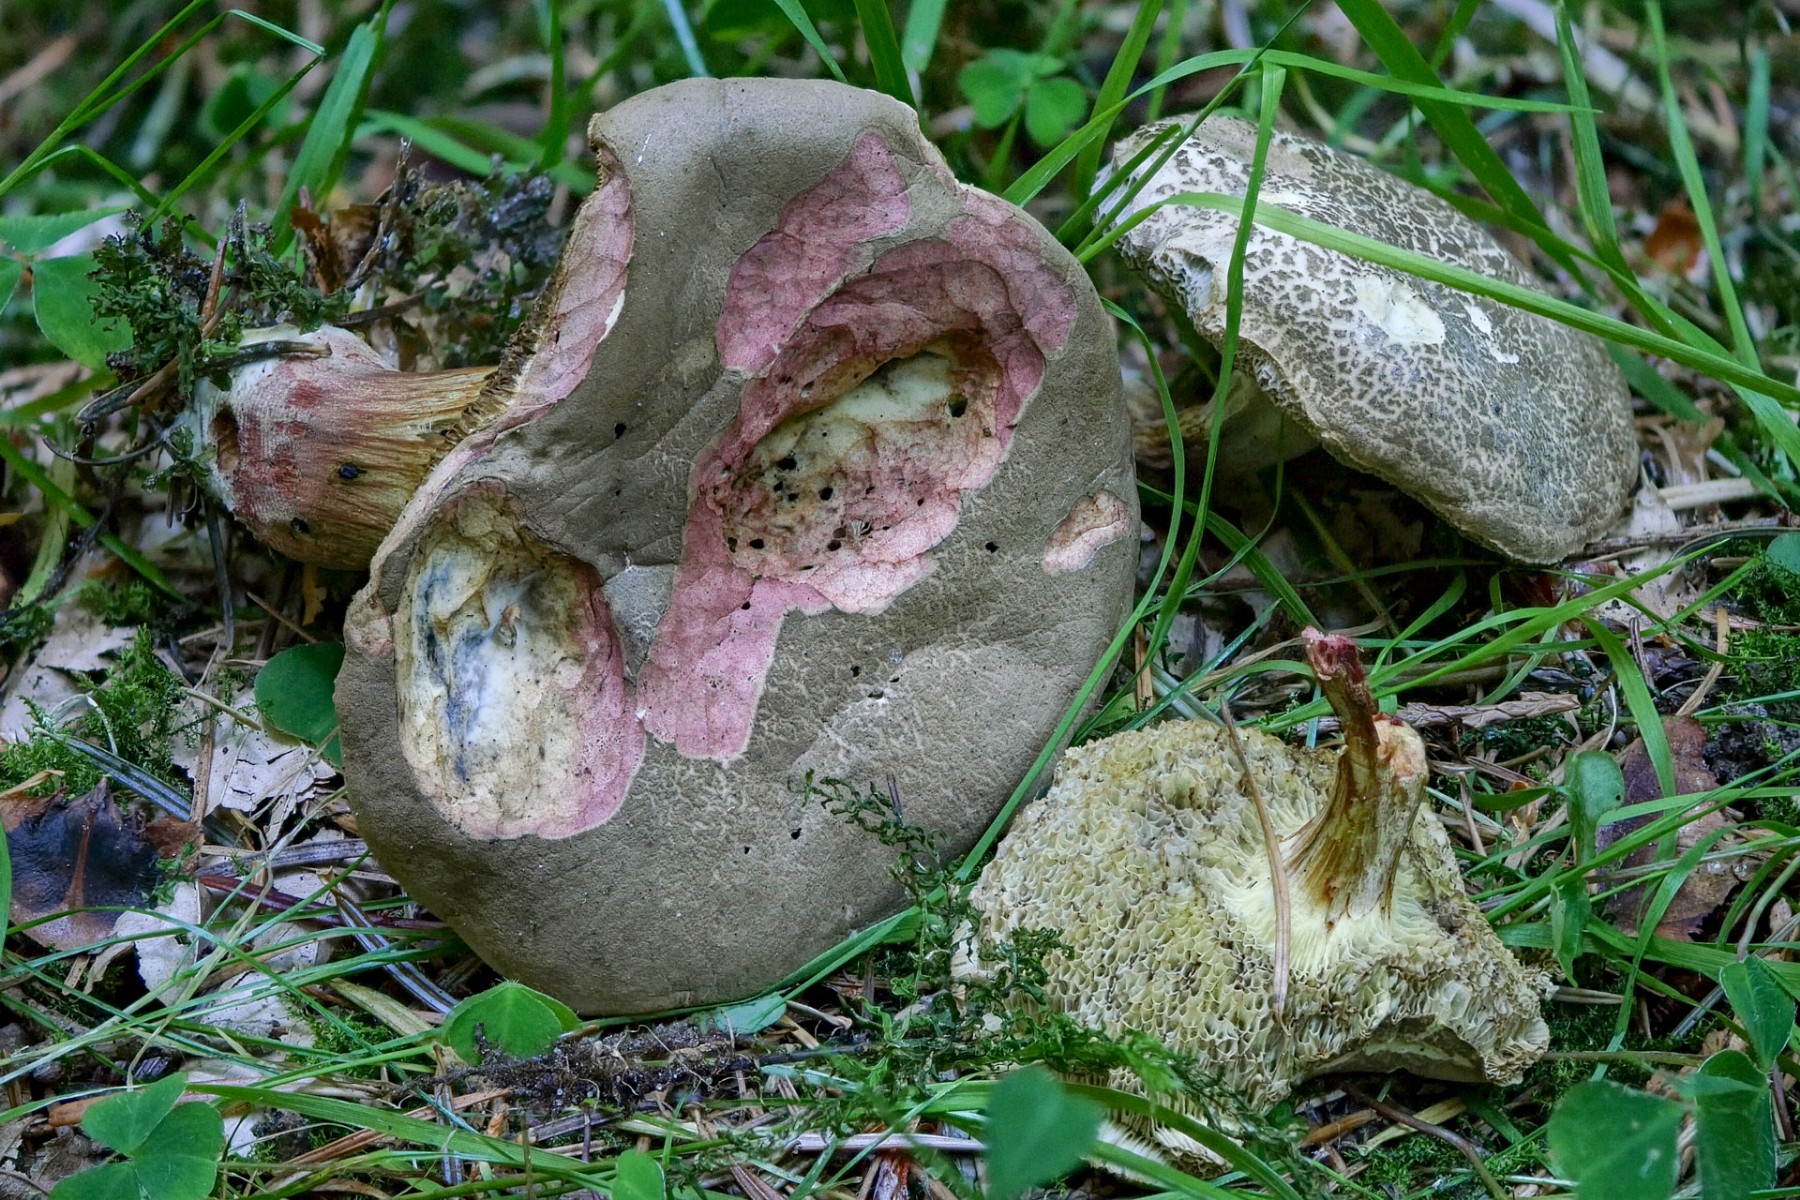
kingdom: Fungi
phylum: Basidiomycota
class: Agaricomycetes
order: Boletales
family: Boletaceae
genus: Xerocomellus
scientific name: Xerocomellus chrysenteron
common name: rødsprukken rørhat
